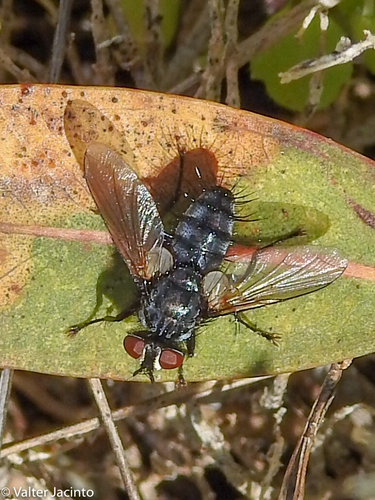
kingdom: Animalia
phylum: Arthropoda
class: Insecta
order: Diptera
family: Tachinidae
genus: Labigastera
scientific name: Labigastera
